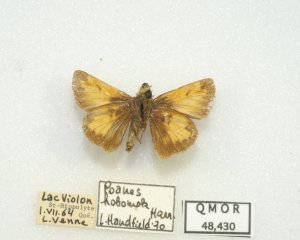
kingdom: Animalia
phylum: Arthropoda
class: Insecta
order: Lepidoptera
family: Hesperiidae
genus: Lon
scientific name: Lon hobomok
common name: Hobomok Skipper
